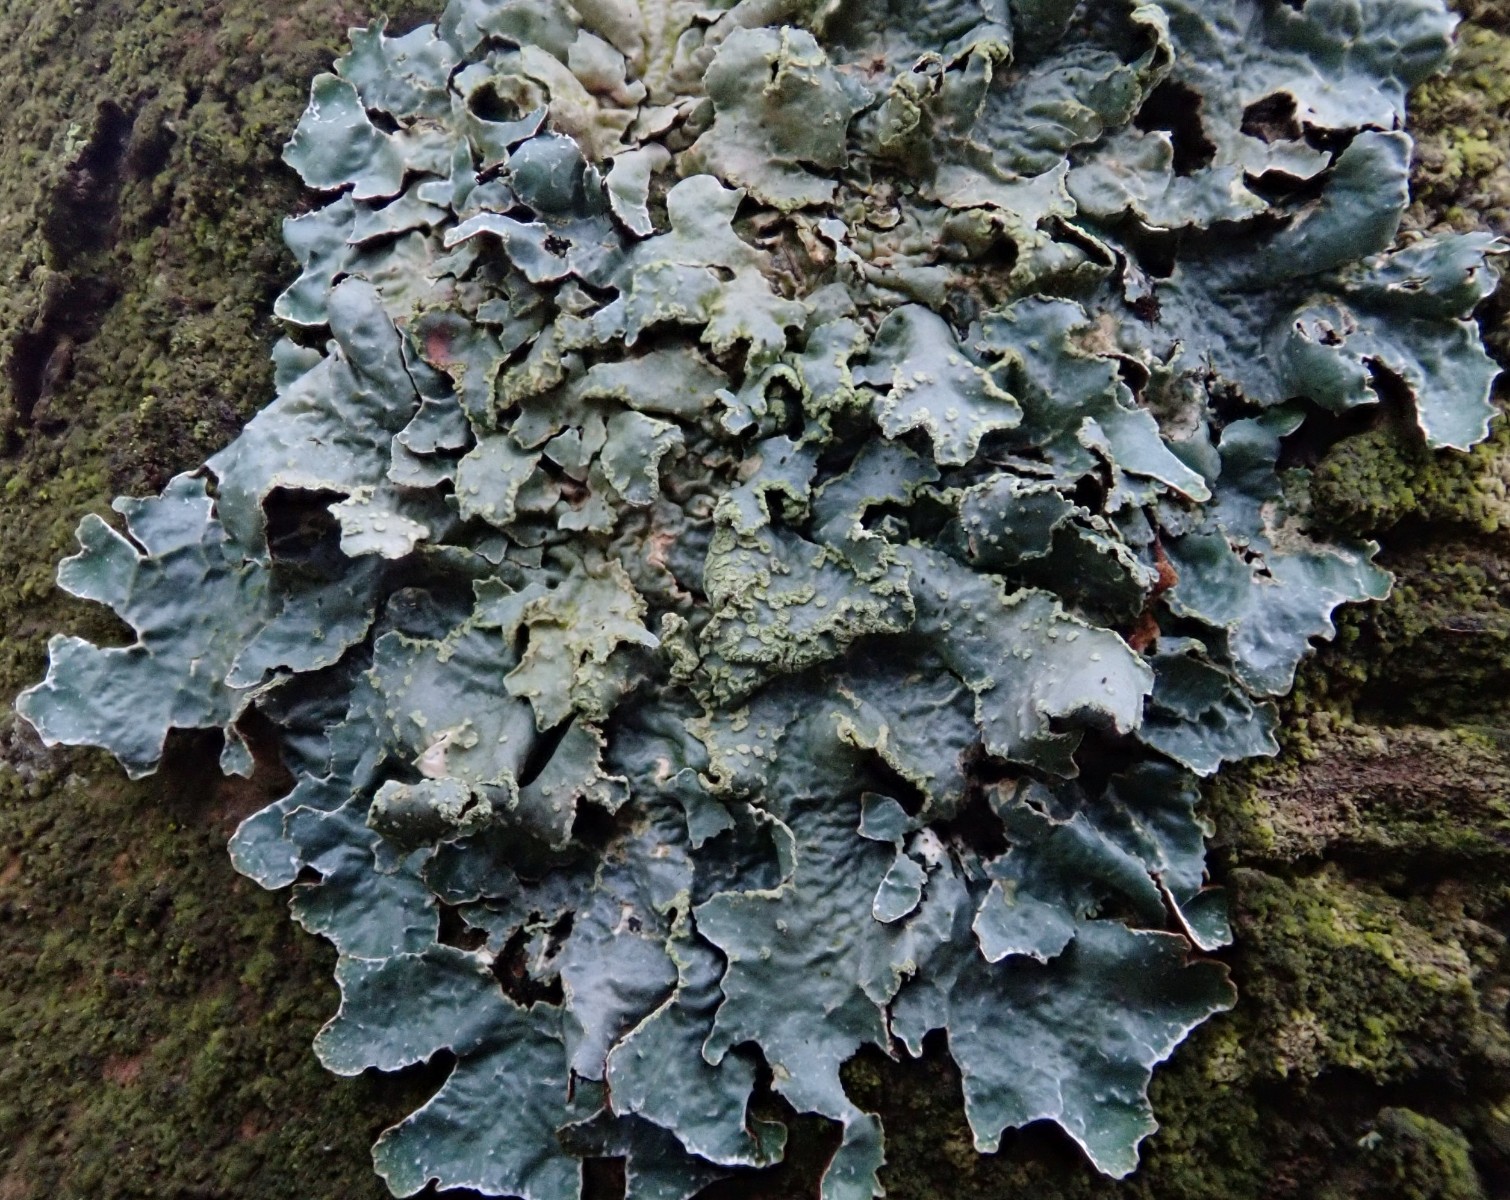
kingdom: Fungi
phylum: Ascomycota
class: Lecanoromycetes
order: Lecanorales
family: Parmeliaceae
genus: Parmelia
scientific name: Parmelia sulcata
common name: rynket skållav
